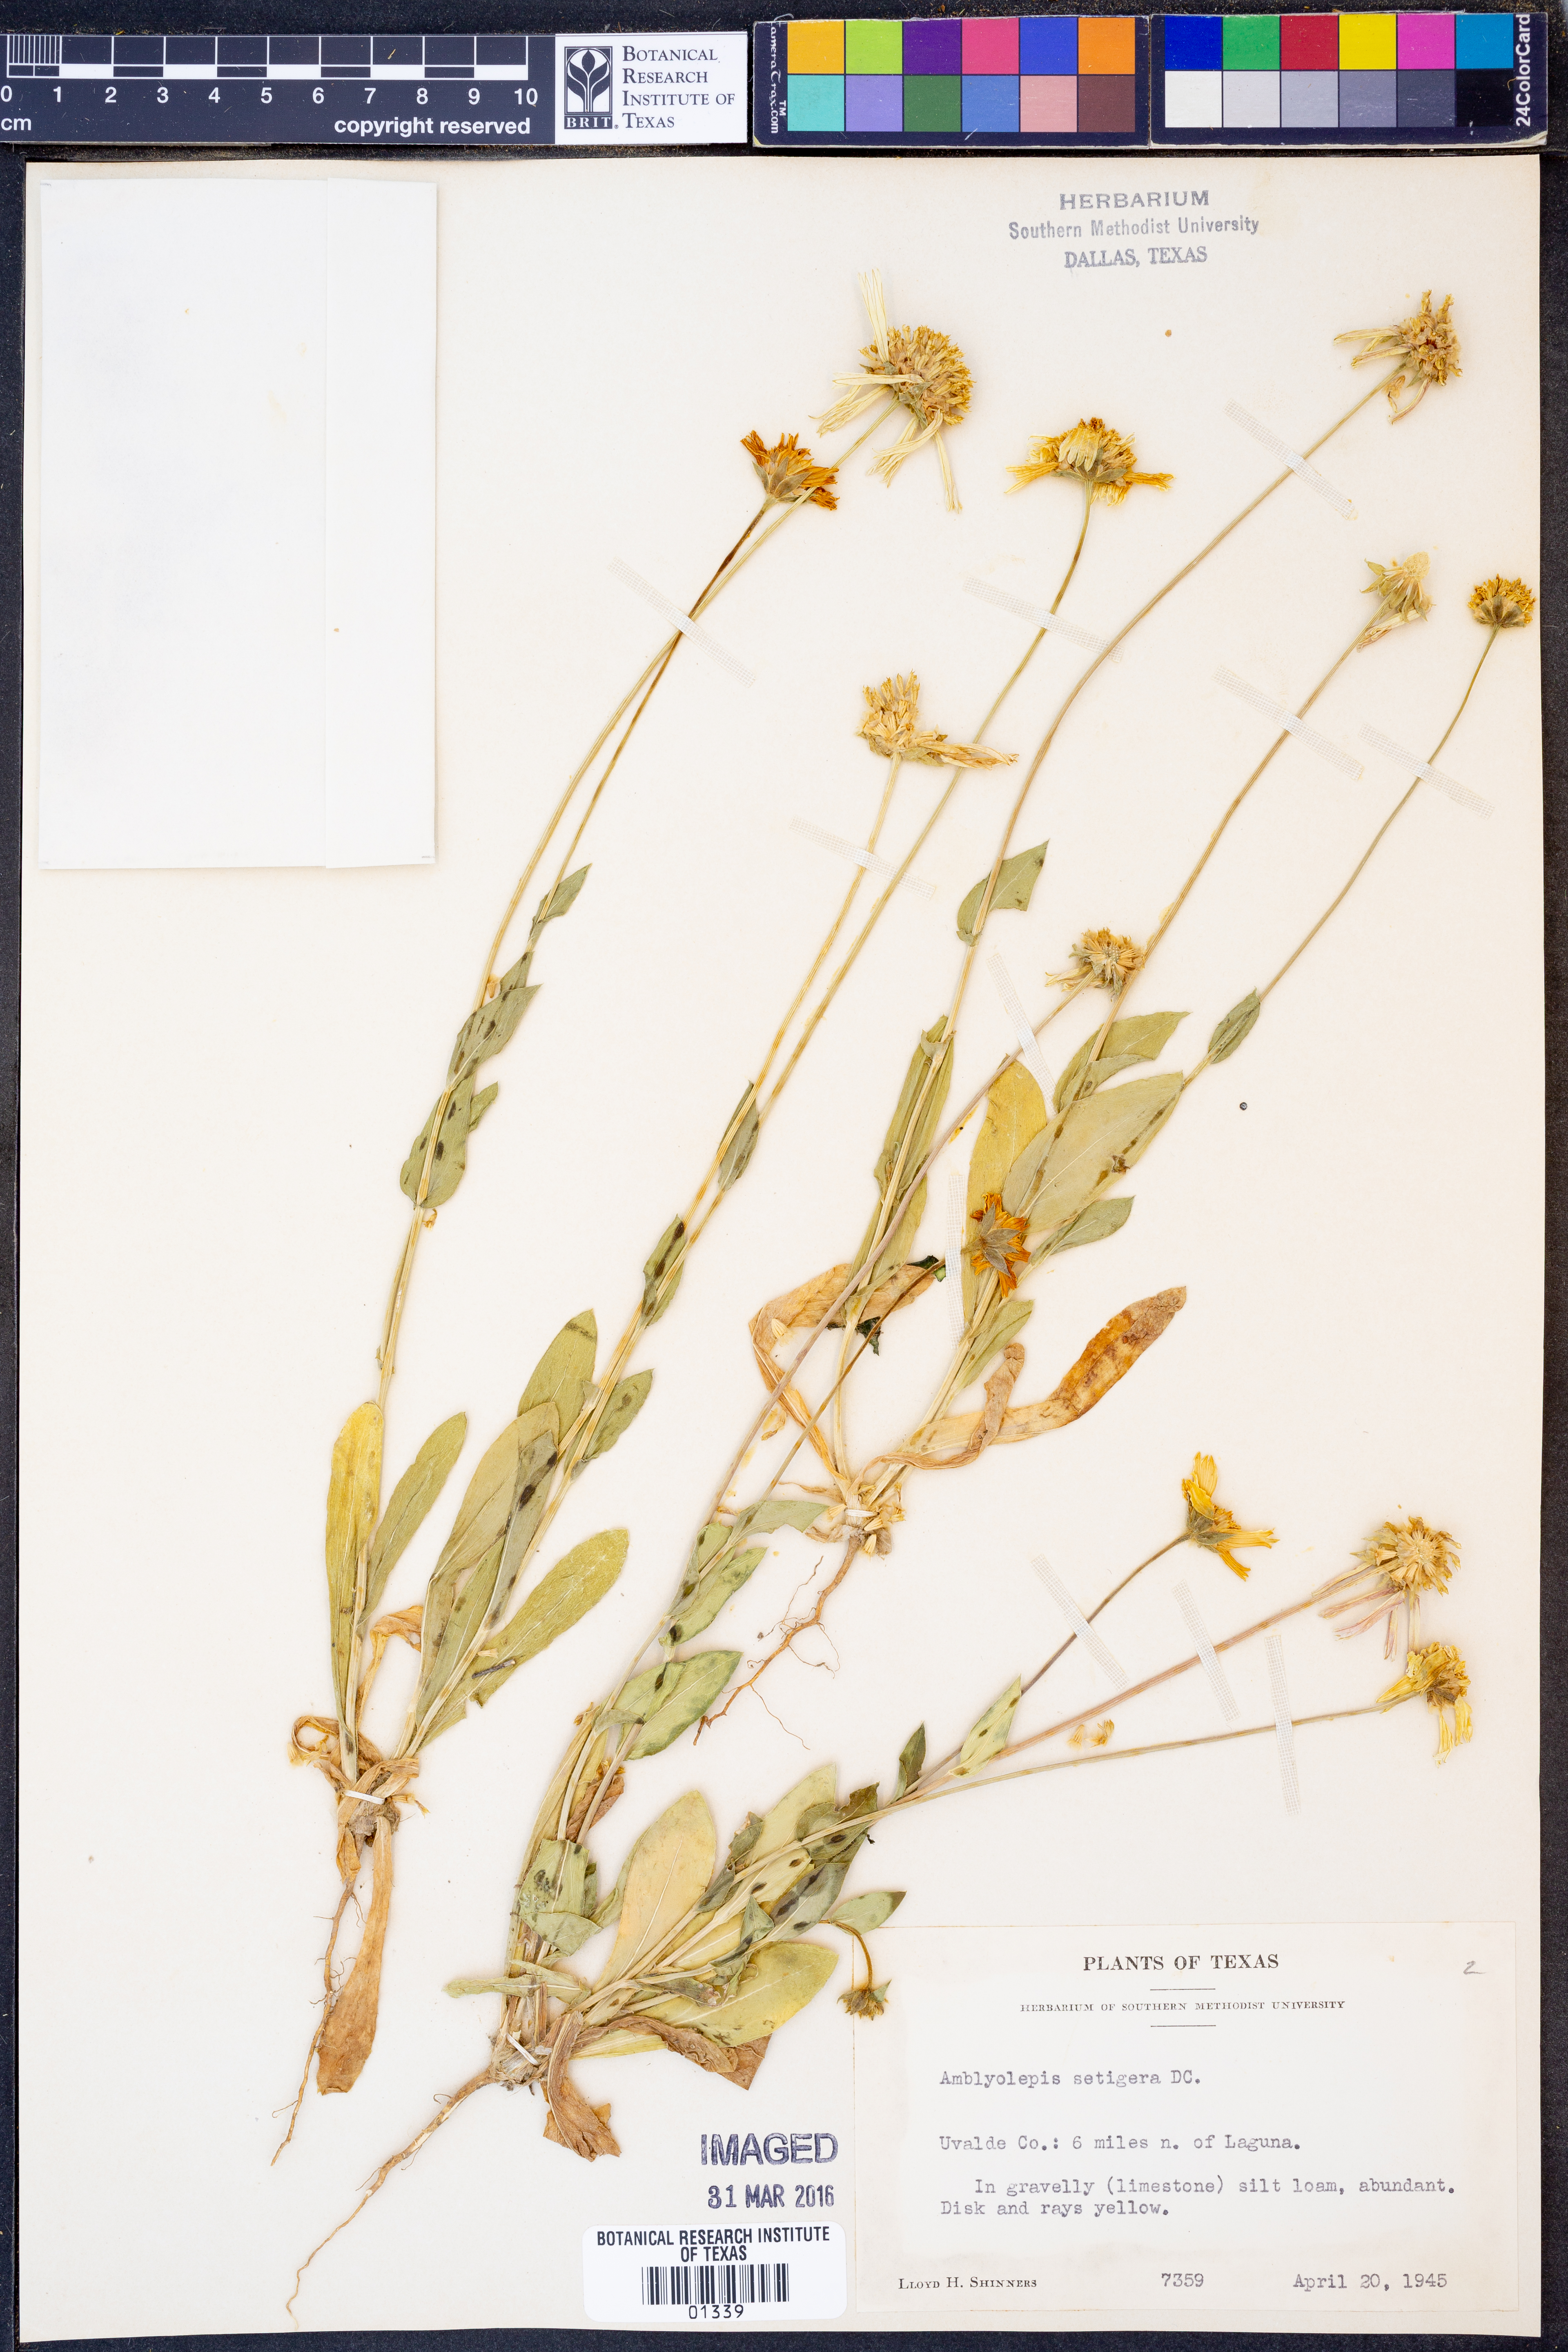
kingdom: Plantae
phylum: Tracheophyta
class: Magnoliopsida
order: Asterales
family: Asteraceae
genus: Amblyolepis
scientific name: Amblyolepis setigera
